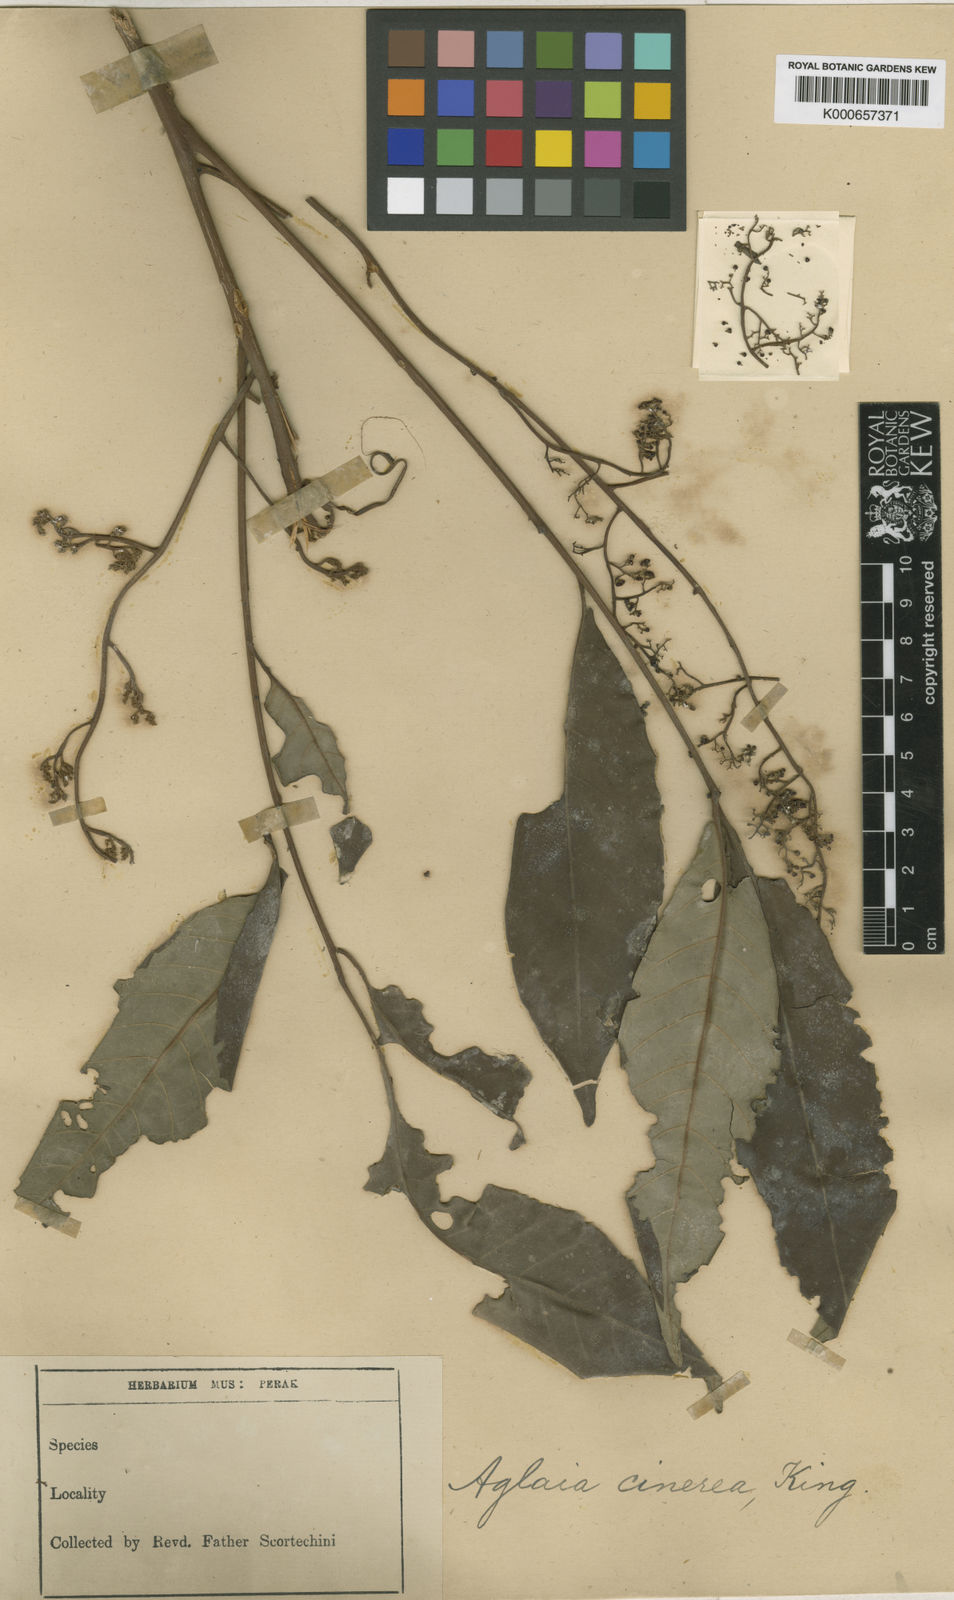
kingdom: Plantae
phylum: Tracheophyta
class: Magnoliopsida
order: Sapindales
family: Meliaceae
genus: Aglaia
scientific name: Aglaia sexipetala
